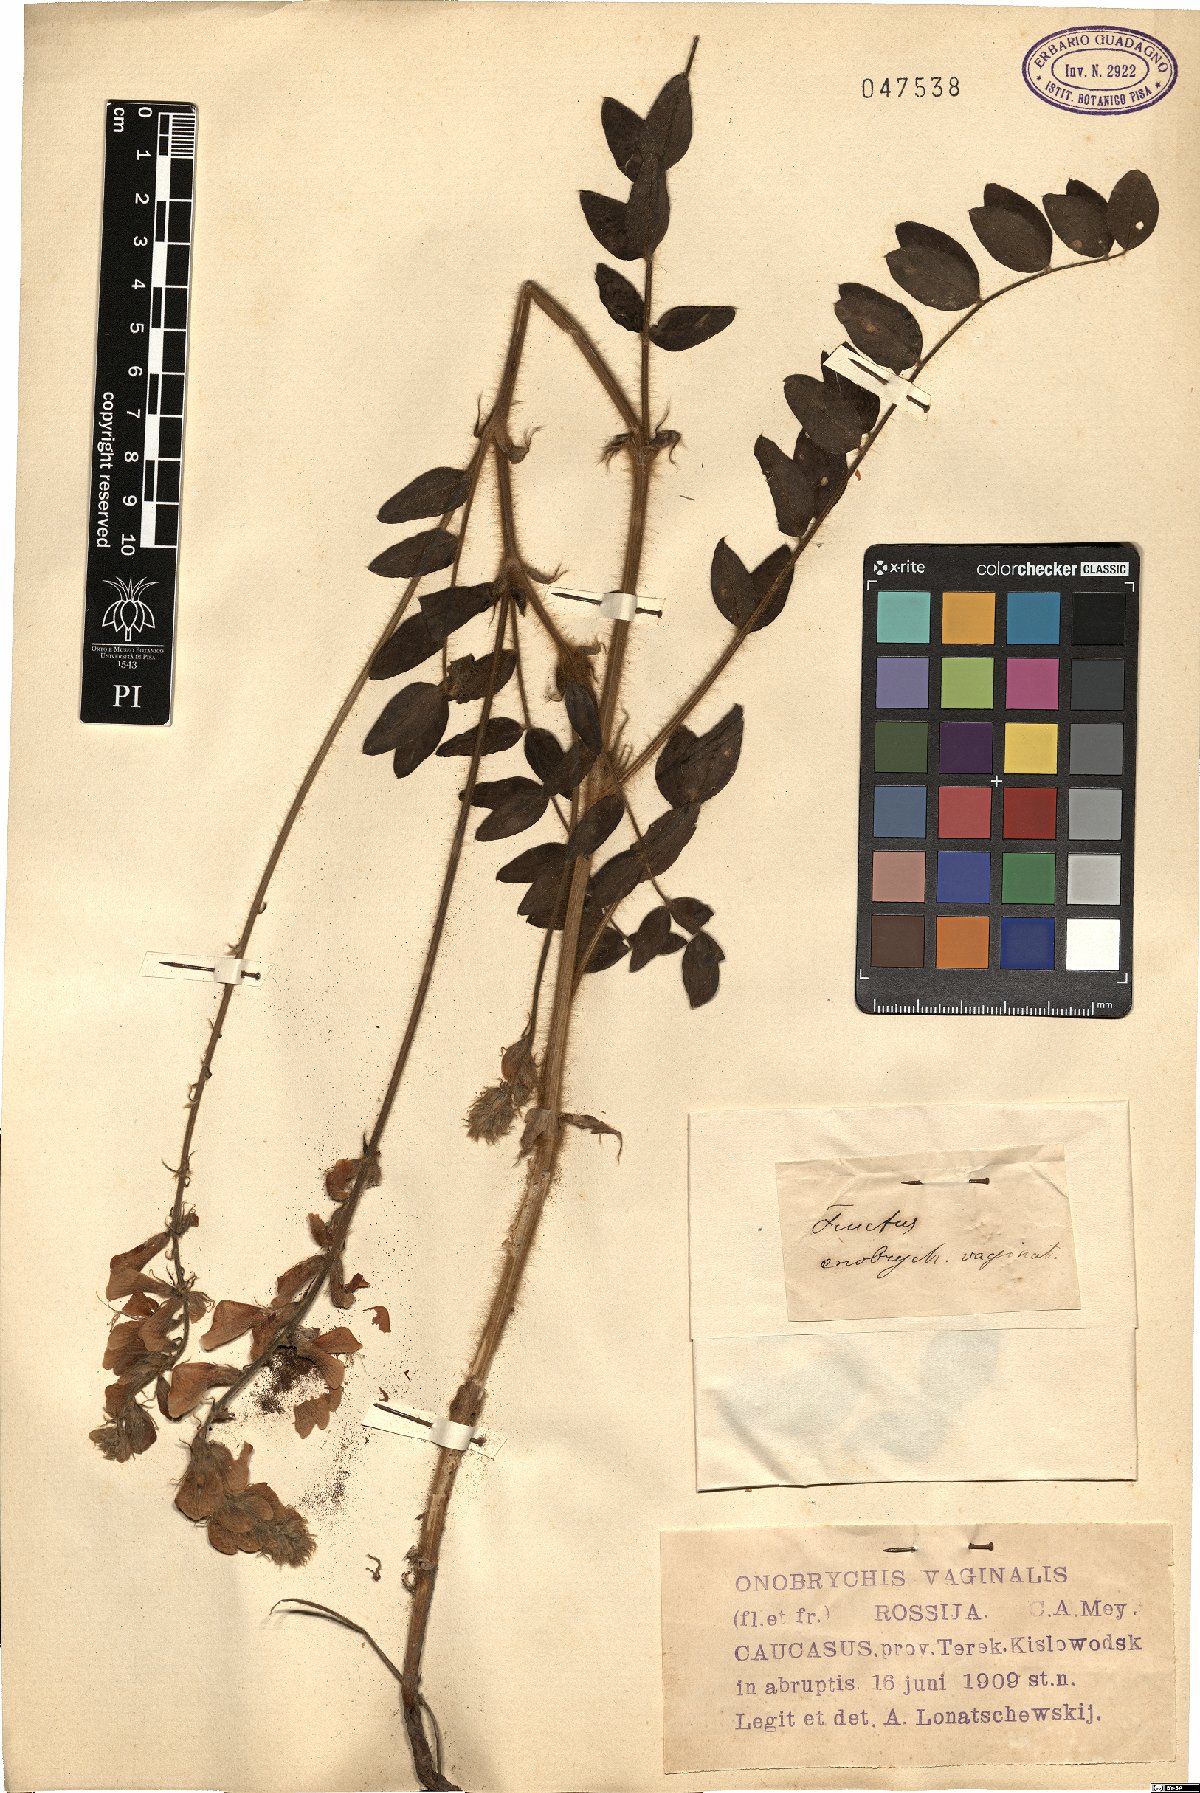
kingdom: Plantae
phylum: Tracheophyta
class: Magnoliopsida
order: Fabales
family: Fabaceae
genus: Onobrychis
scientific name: Onobrychis vaginalis
